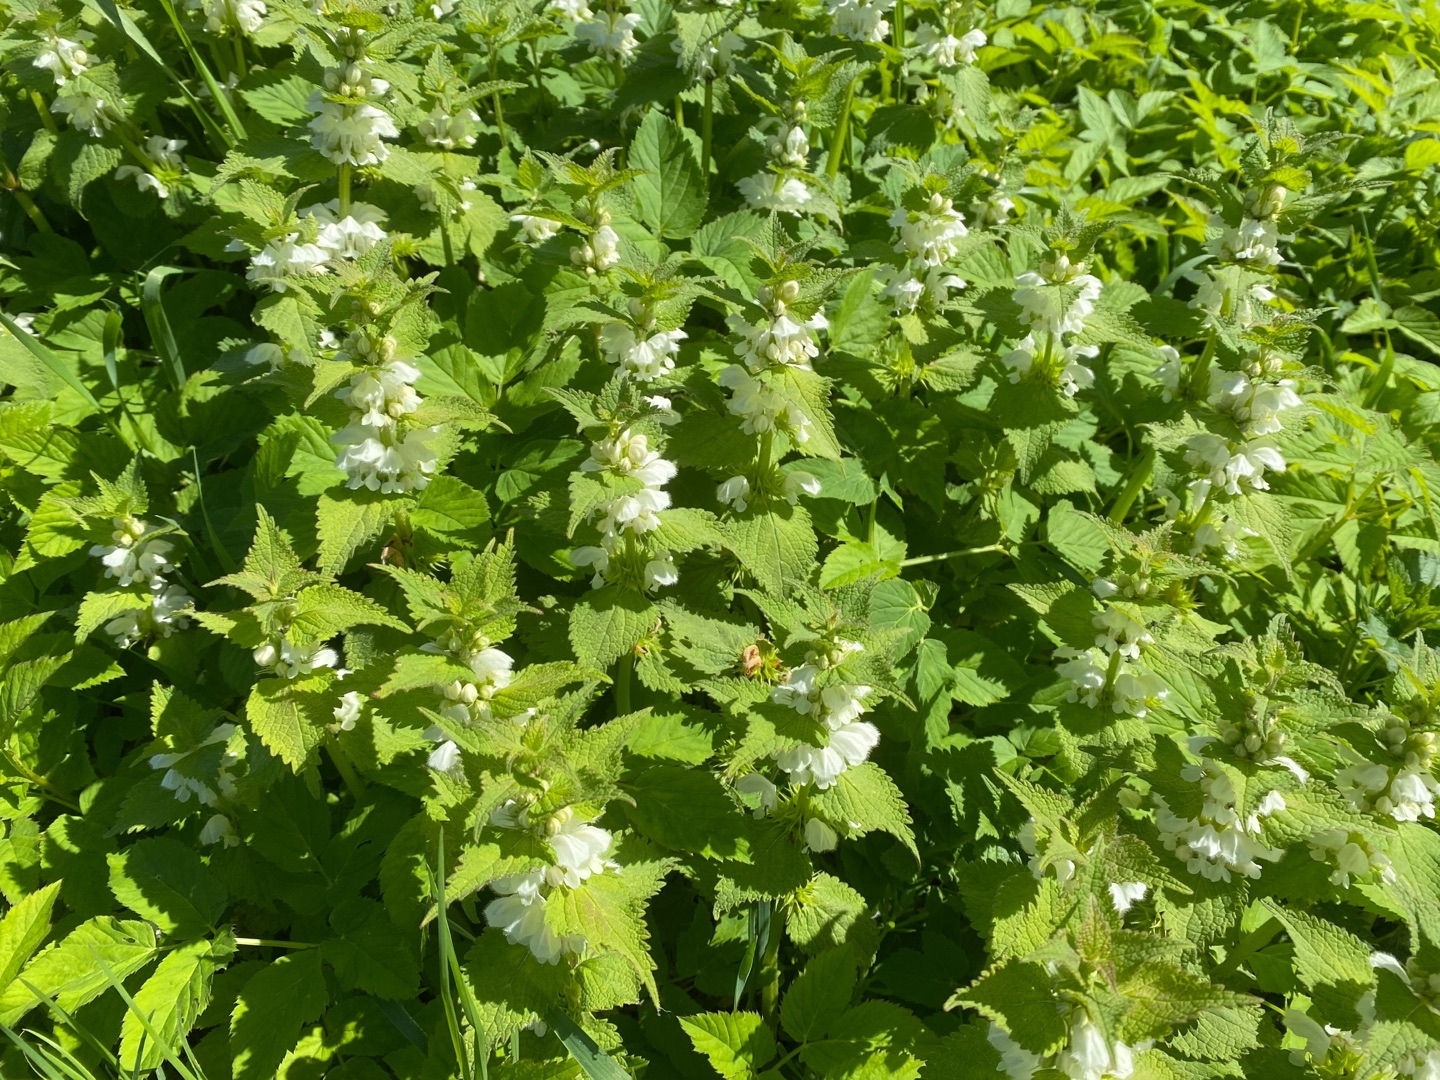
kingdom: Plantae
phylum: Tracheophyta
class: Magnoliopsida
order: Lamiales
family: Lamiaceae
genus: Lamium
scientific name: Lamium album
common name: Døvnælde
